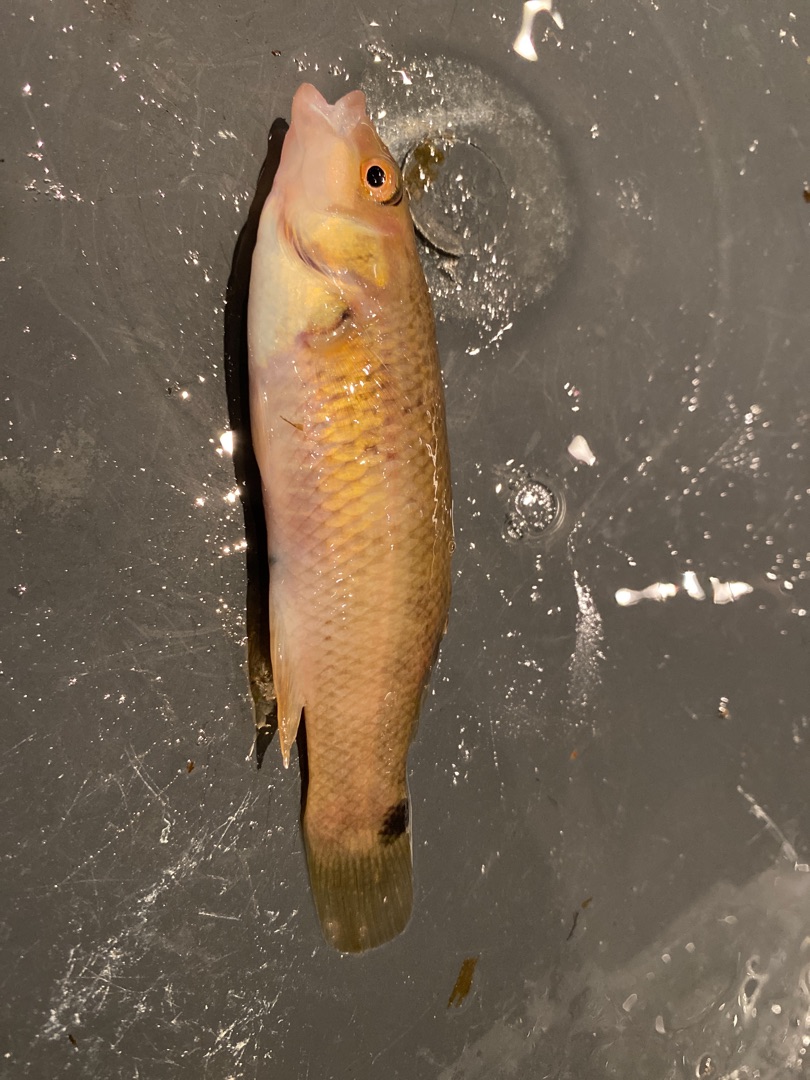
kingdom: Animalia
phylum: Chordata
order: Perciformes
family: Labridae
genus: Ctenolabrus
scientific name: Ctenolabrus rupestris
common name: Havkarusse
